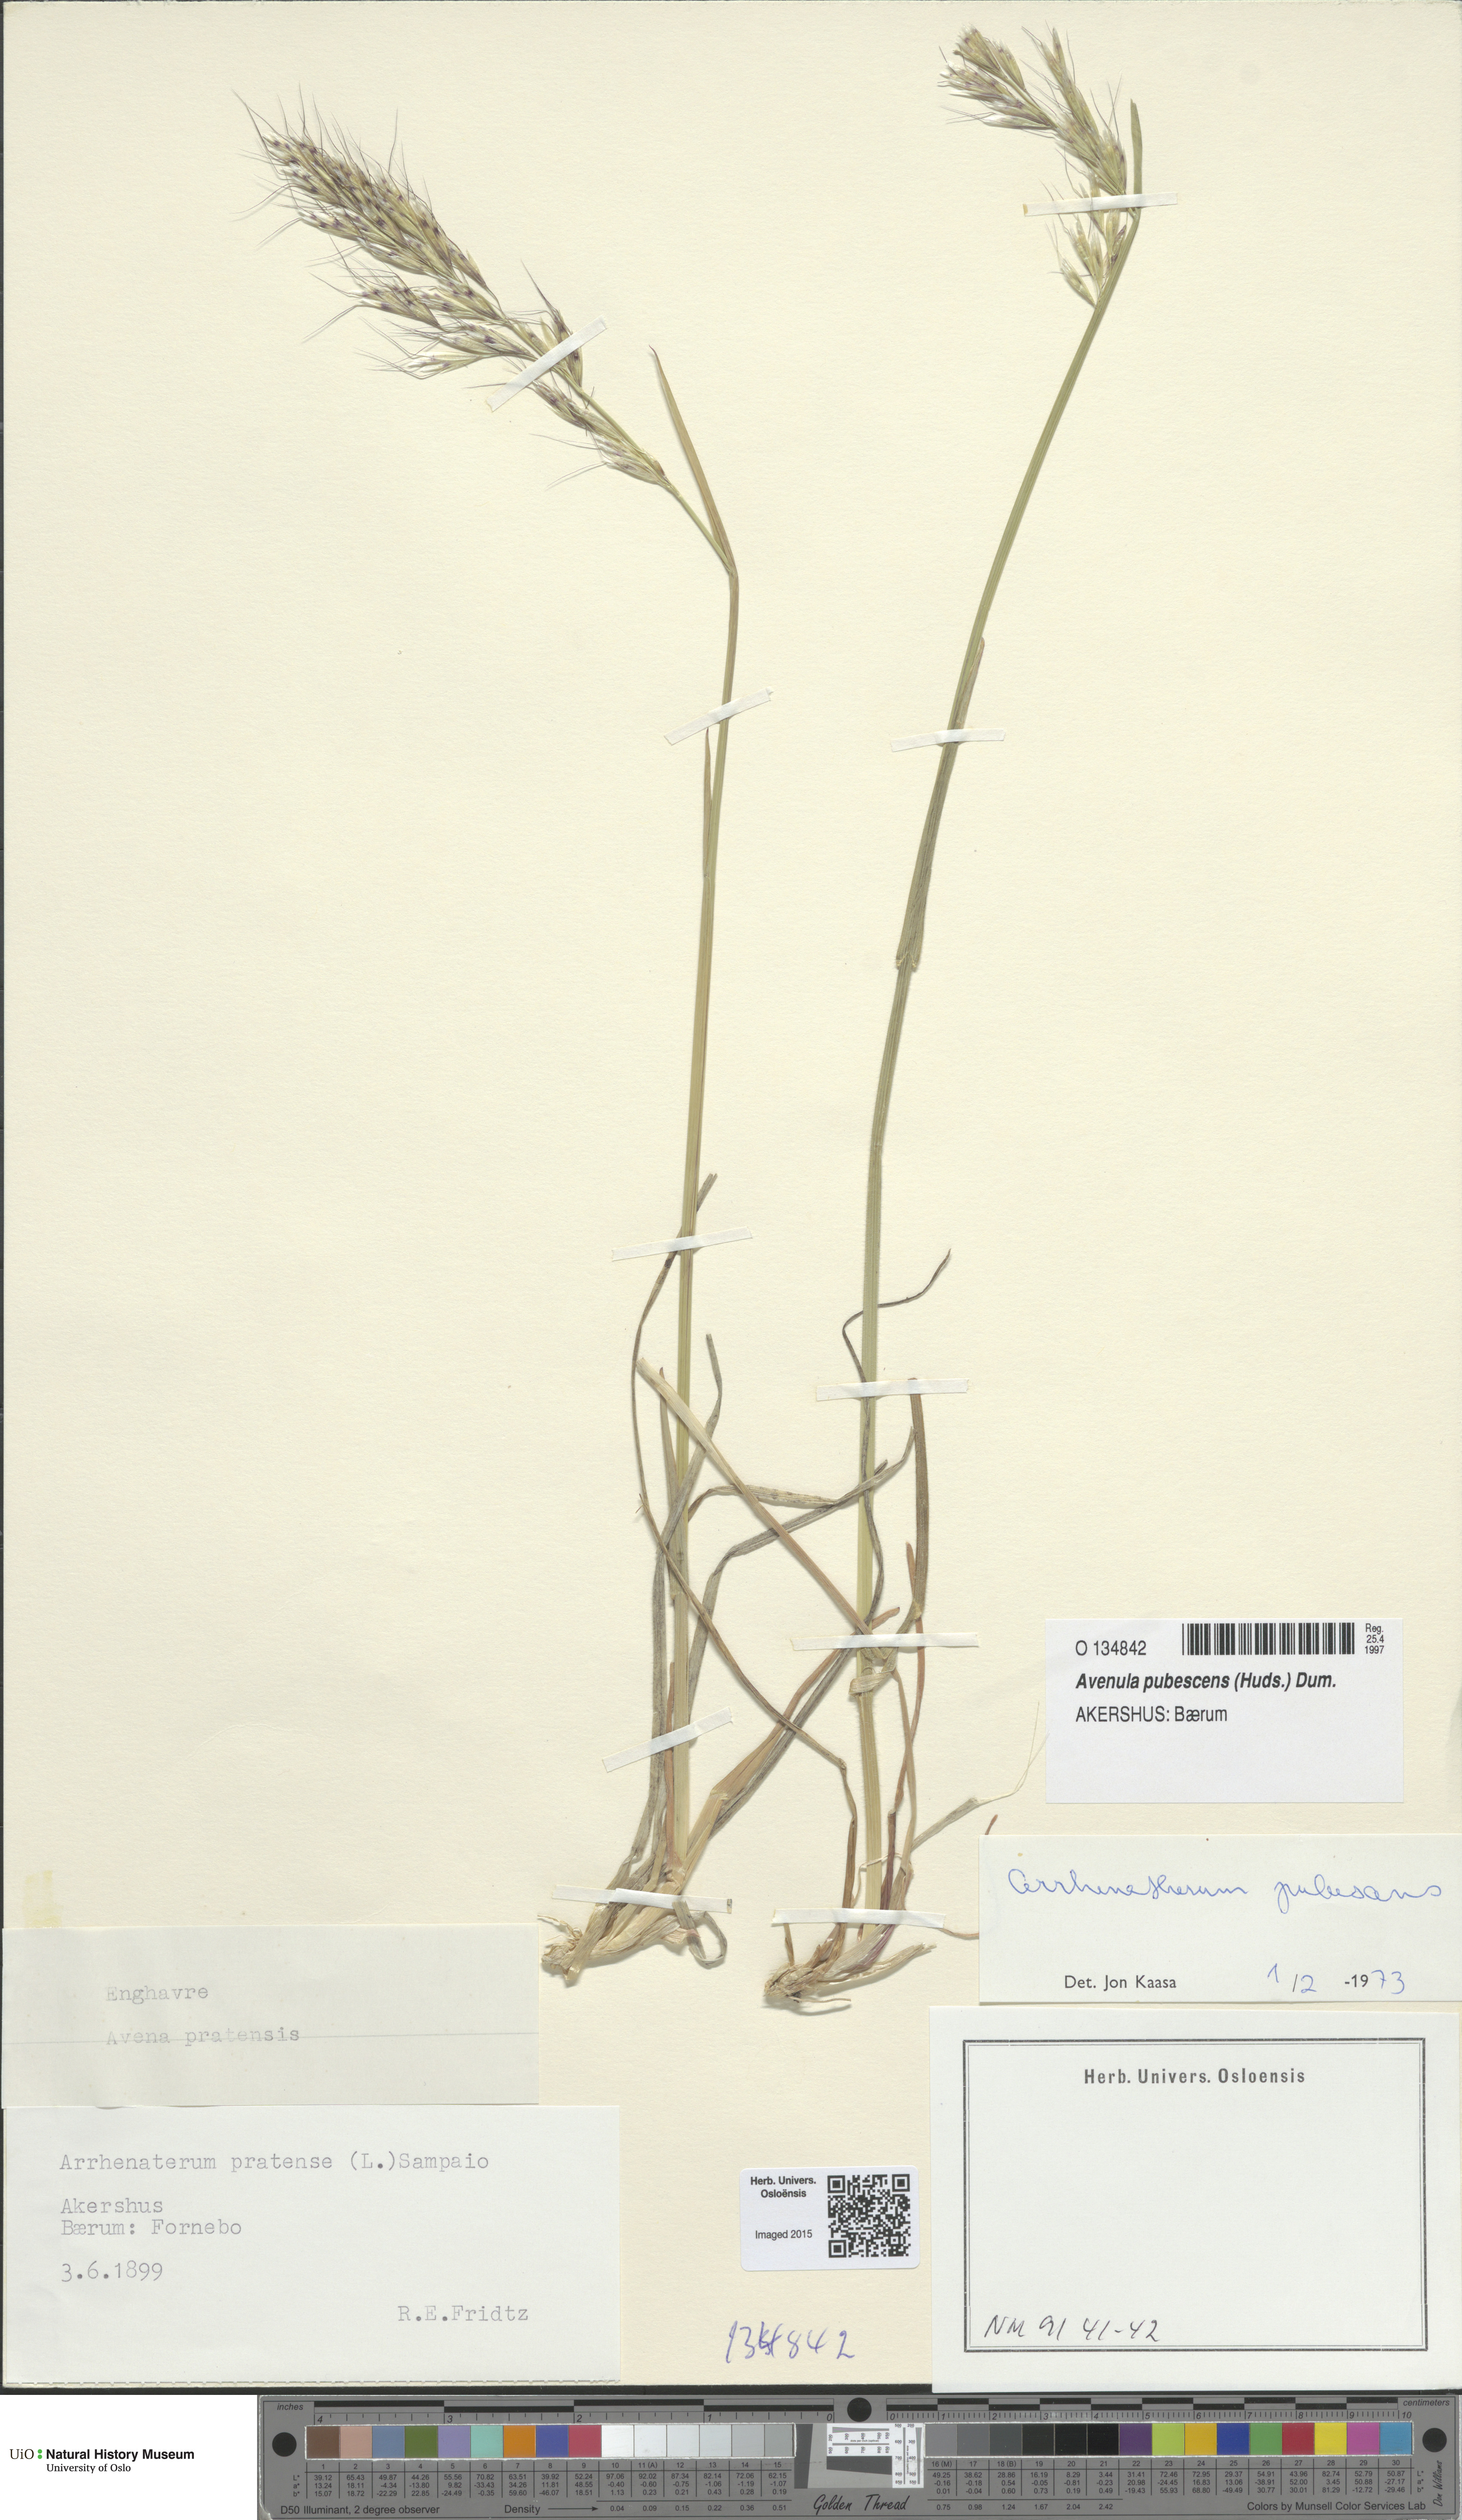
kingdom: Plantae
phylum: Tracheophyta
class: Liliopsida
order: Poales
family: Poaceae
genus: Avenula
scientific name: Avenula pubescens
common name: Downy alpine oatgrass
